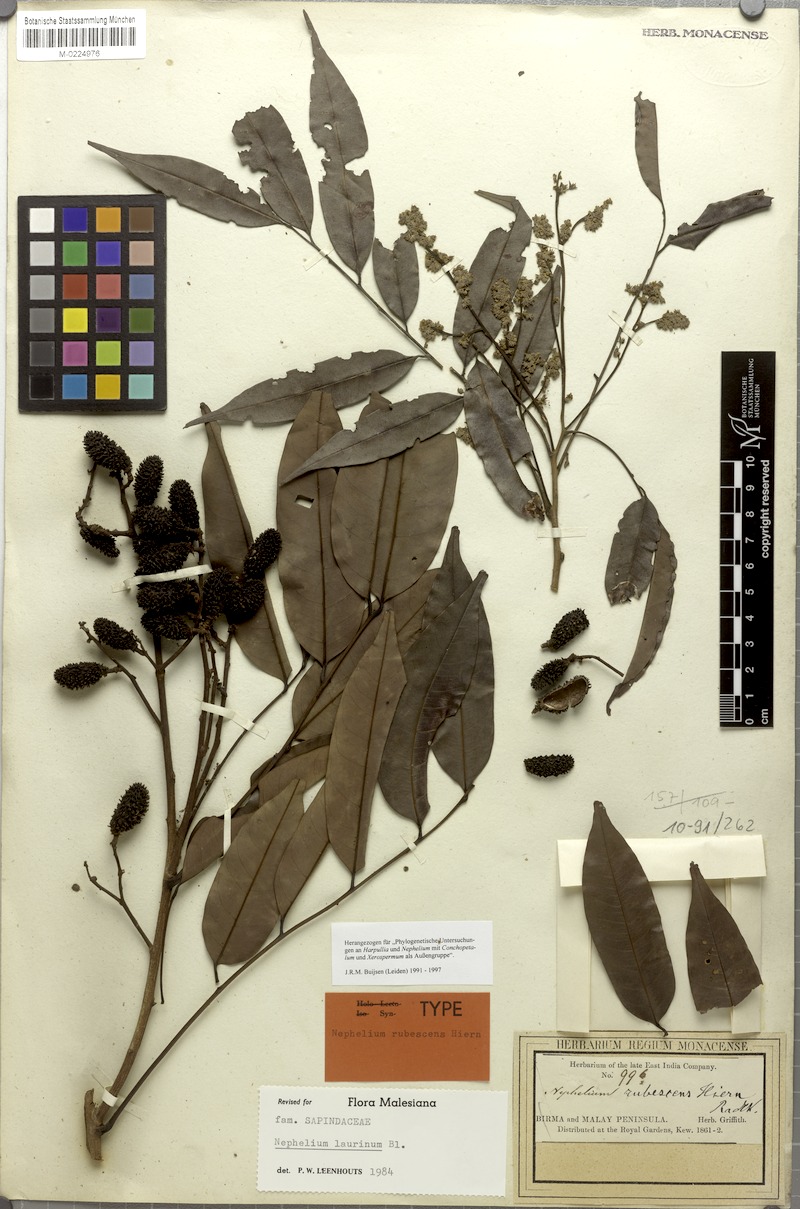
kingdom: Plantae
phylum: Tracheophyta
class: Magnoliopsida
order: Sapindales
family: Sapindaceae
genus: Nephelium
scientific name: Nephelium laurinum
